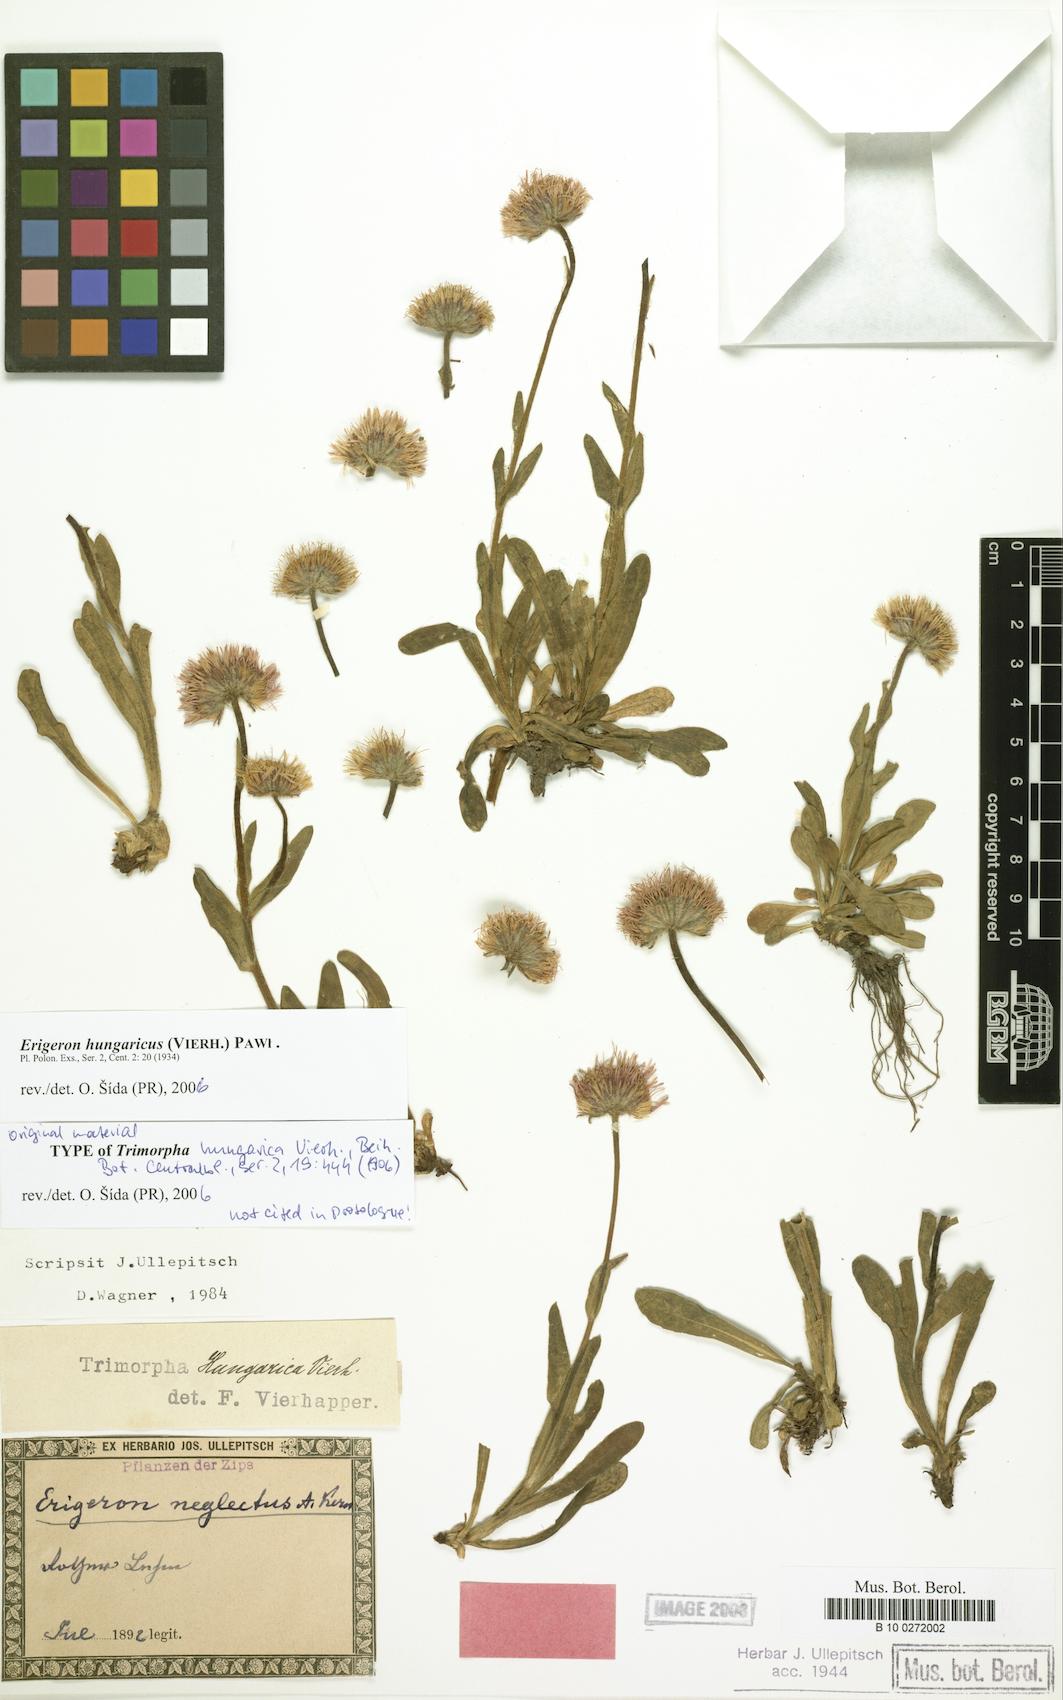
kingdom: Plantae
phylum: Tracheophyta
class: Magnoliopsida
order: Asterales
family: Asteraceae
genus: Erigeron
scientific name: Erigeron hungaricus
